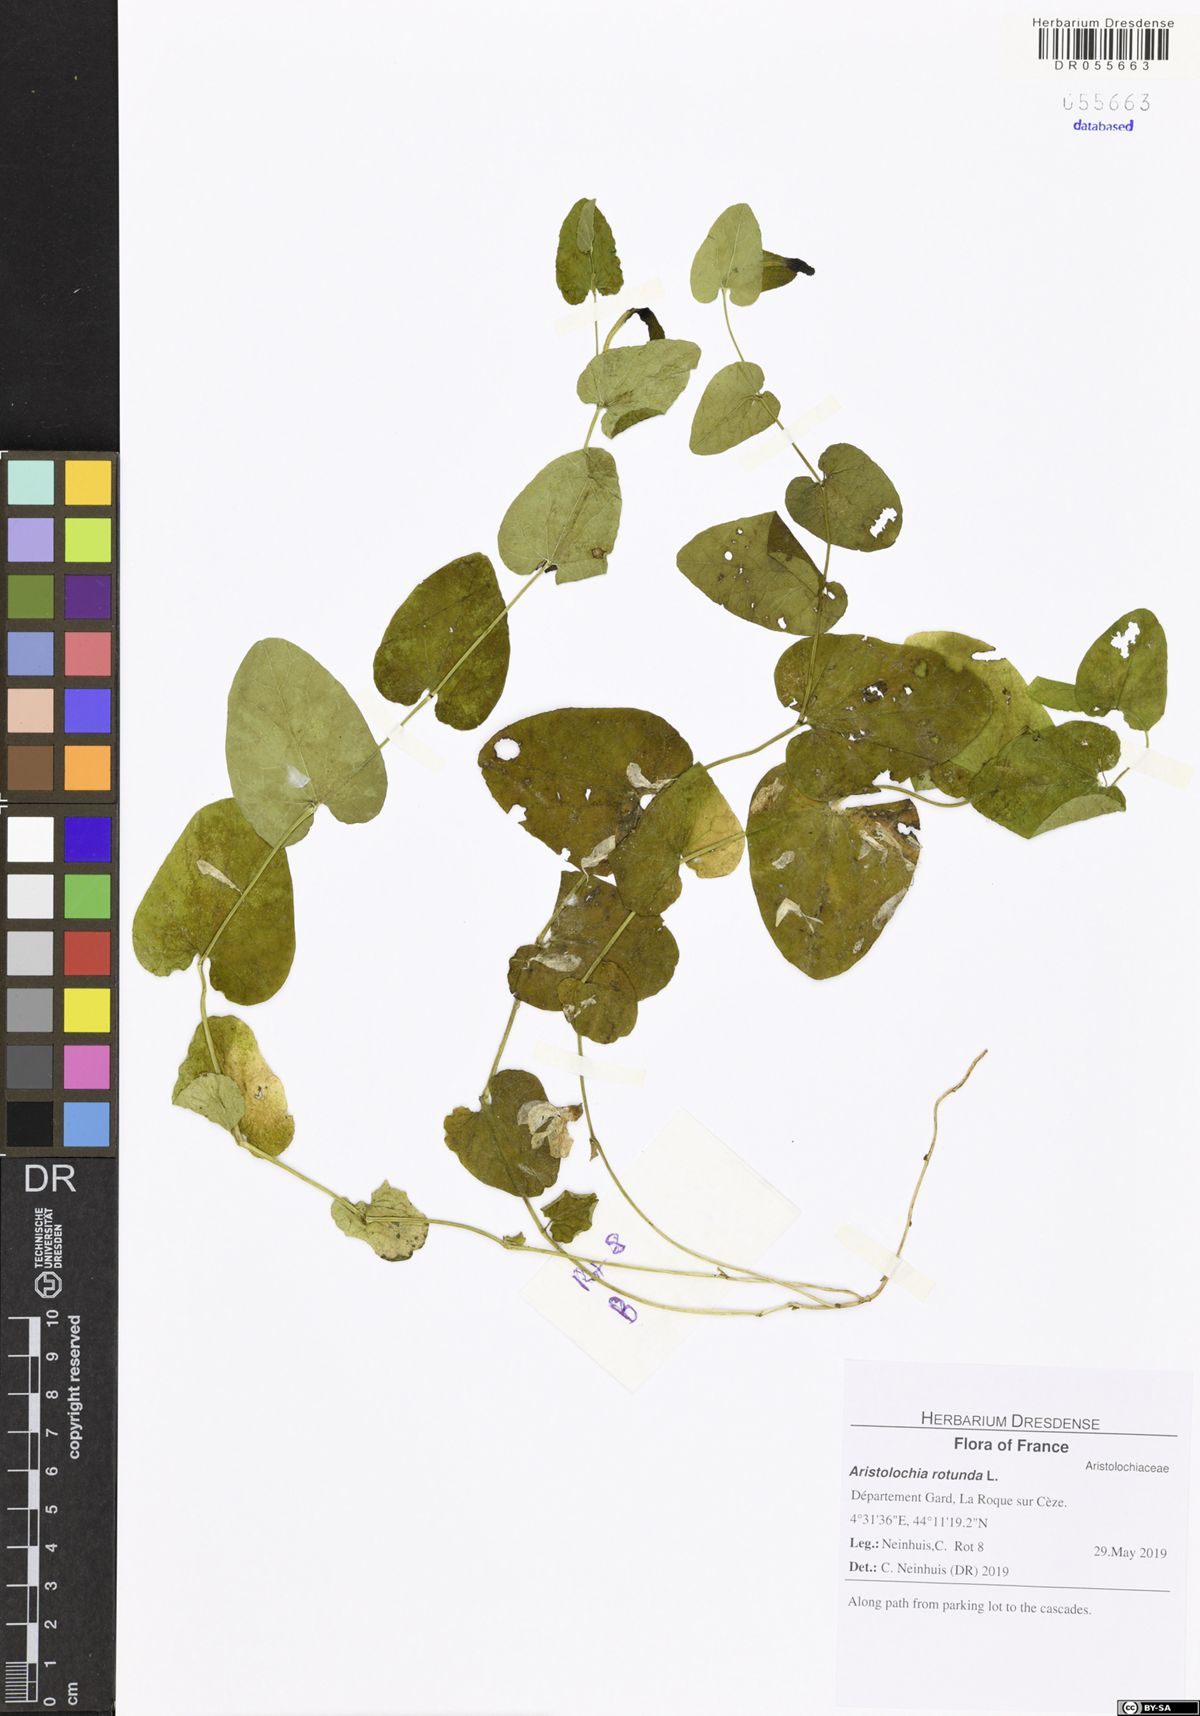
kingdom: Plantae
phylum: Tracheophyta
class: Magnoliopsida
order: Piperales
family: Aristolochiaceae
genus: Aristolochia
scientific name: Aristolochia rotunda
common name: Smearwort
